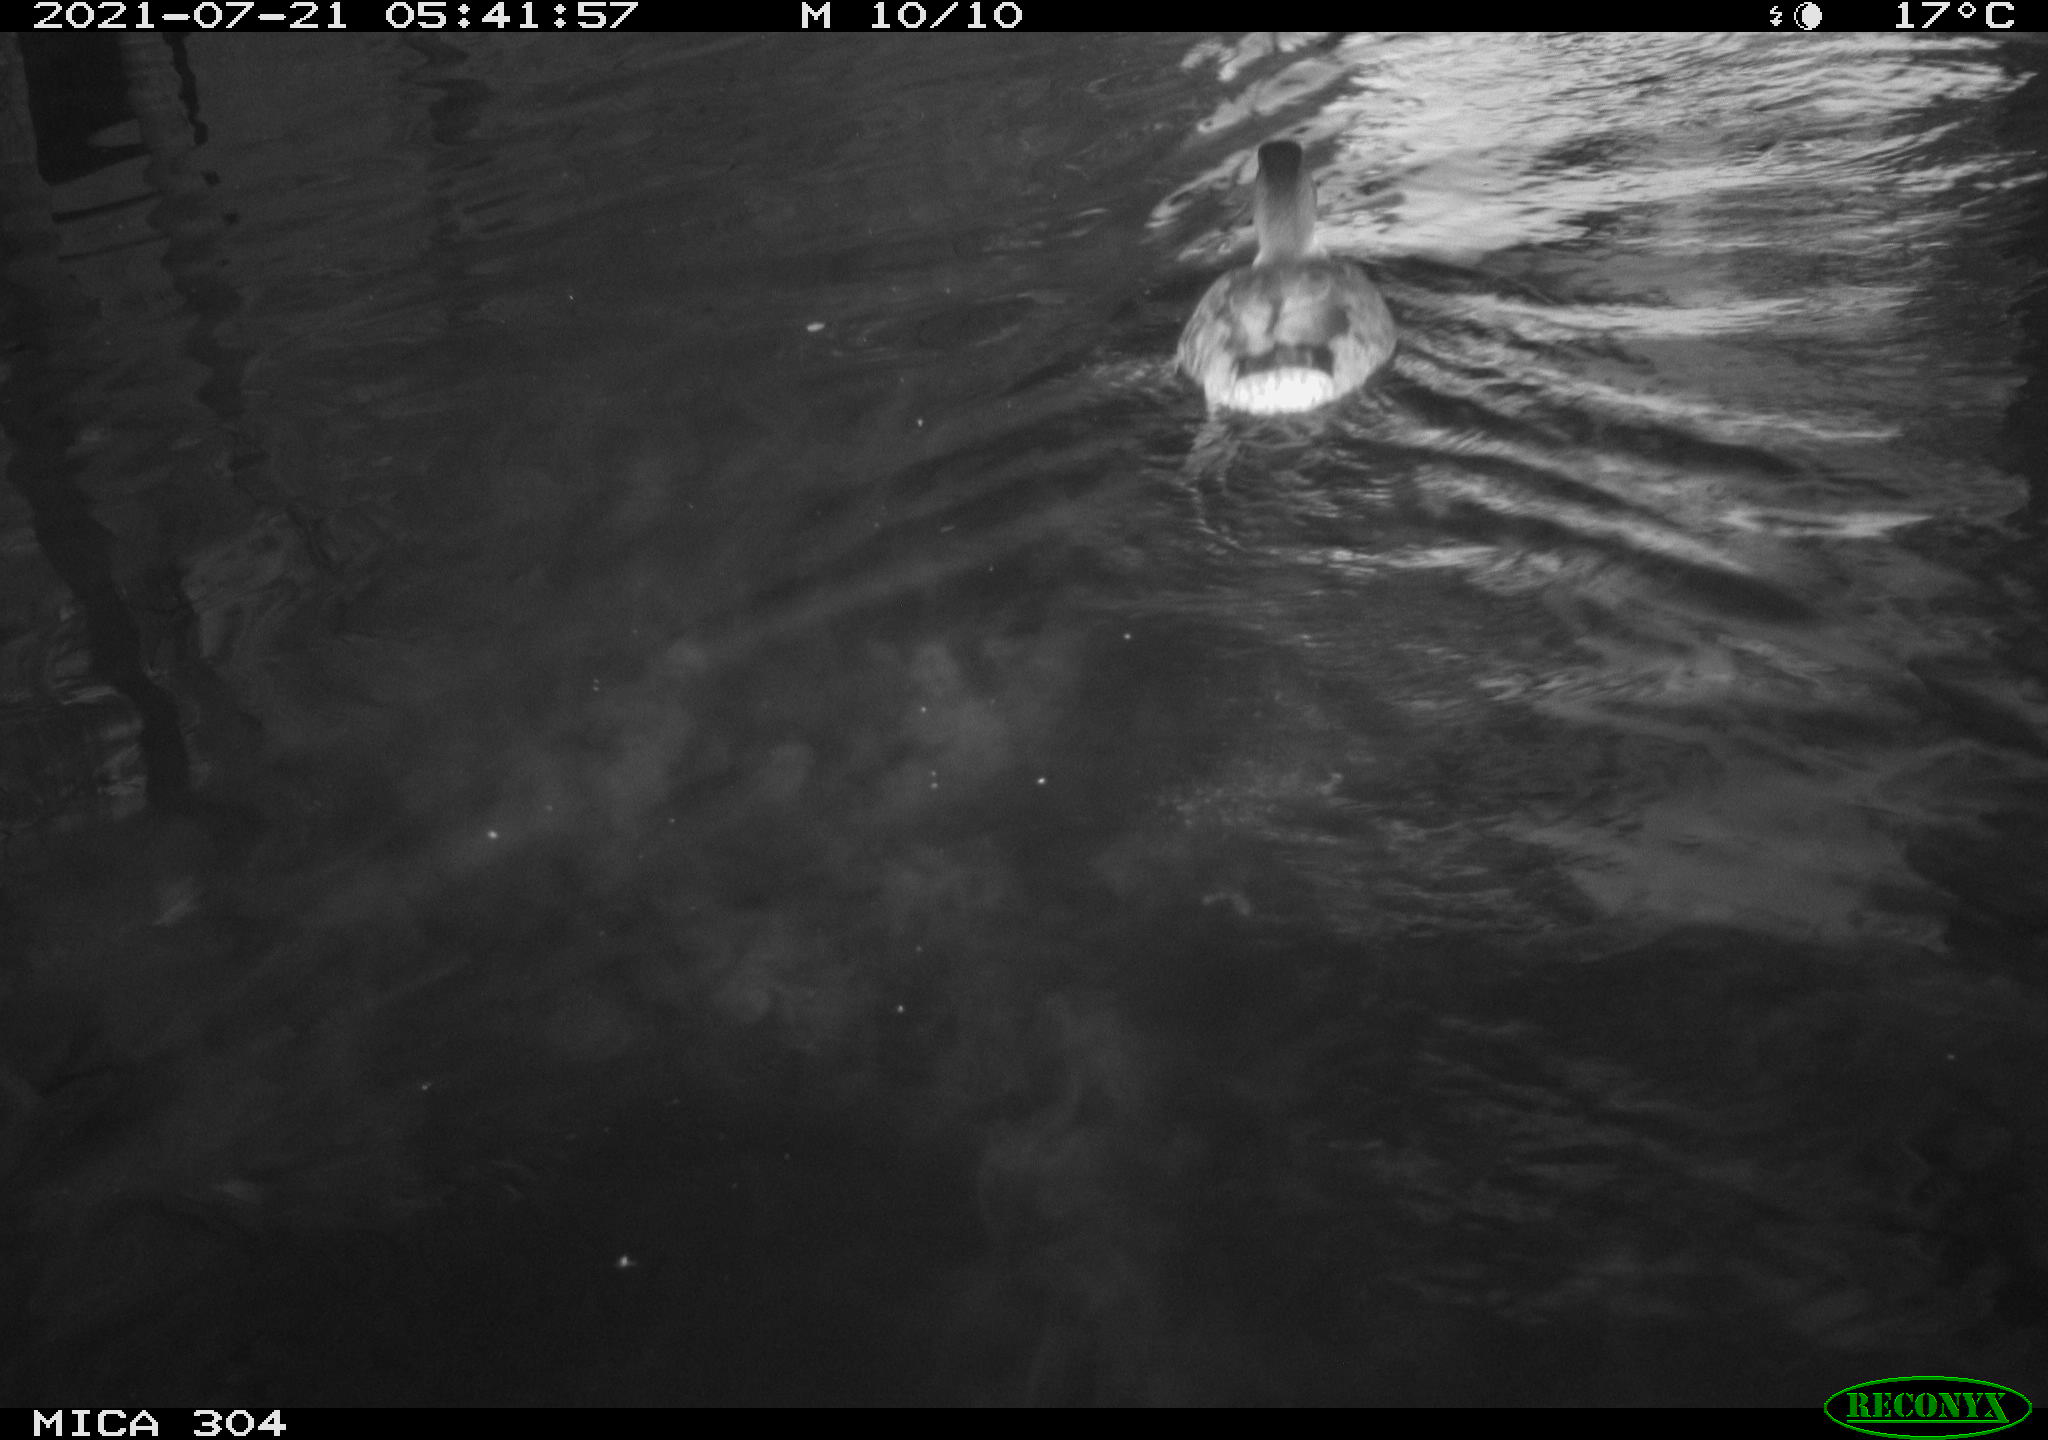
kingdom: Animalia
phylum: Chordata
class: Aves
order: Pelecaniformes
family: Ardeidae
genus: Ardea
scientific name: Ardea
